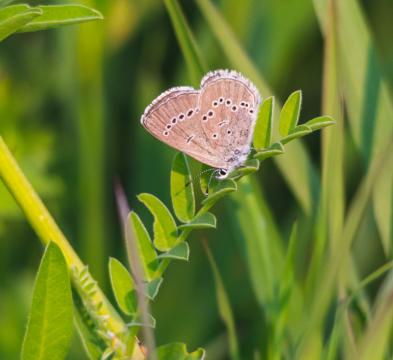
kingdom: Animalia
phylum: Arthropoda
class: Insecta
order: Lepidoptera
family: Lycaenidae
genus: Glaucopsyche
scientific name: Glaucopsyche lygdamus
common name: Silvery Blue
